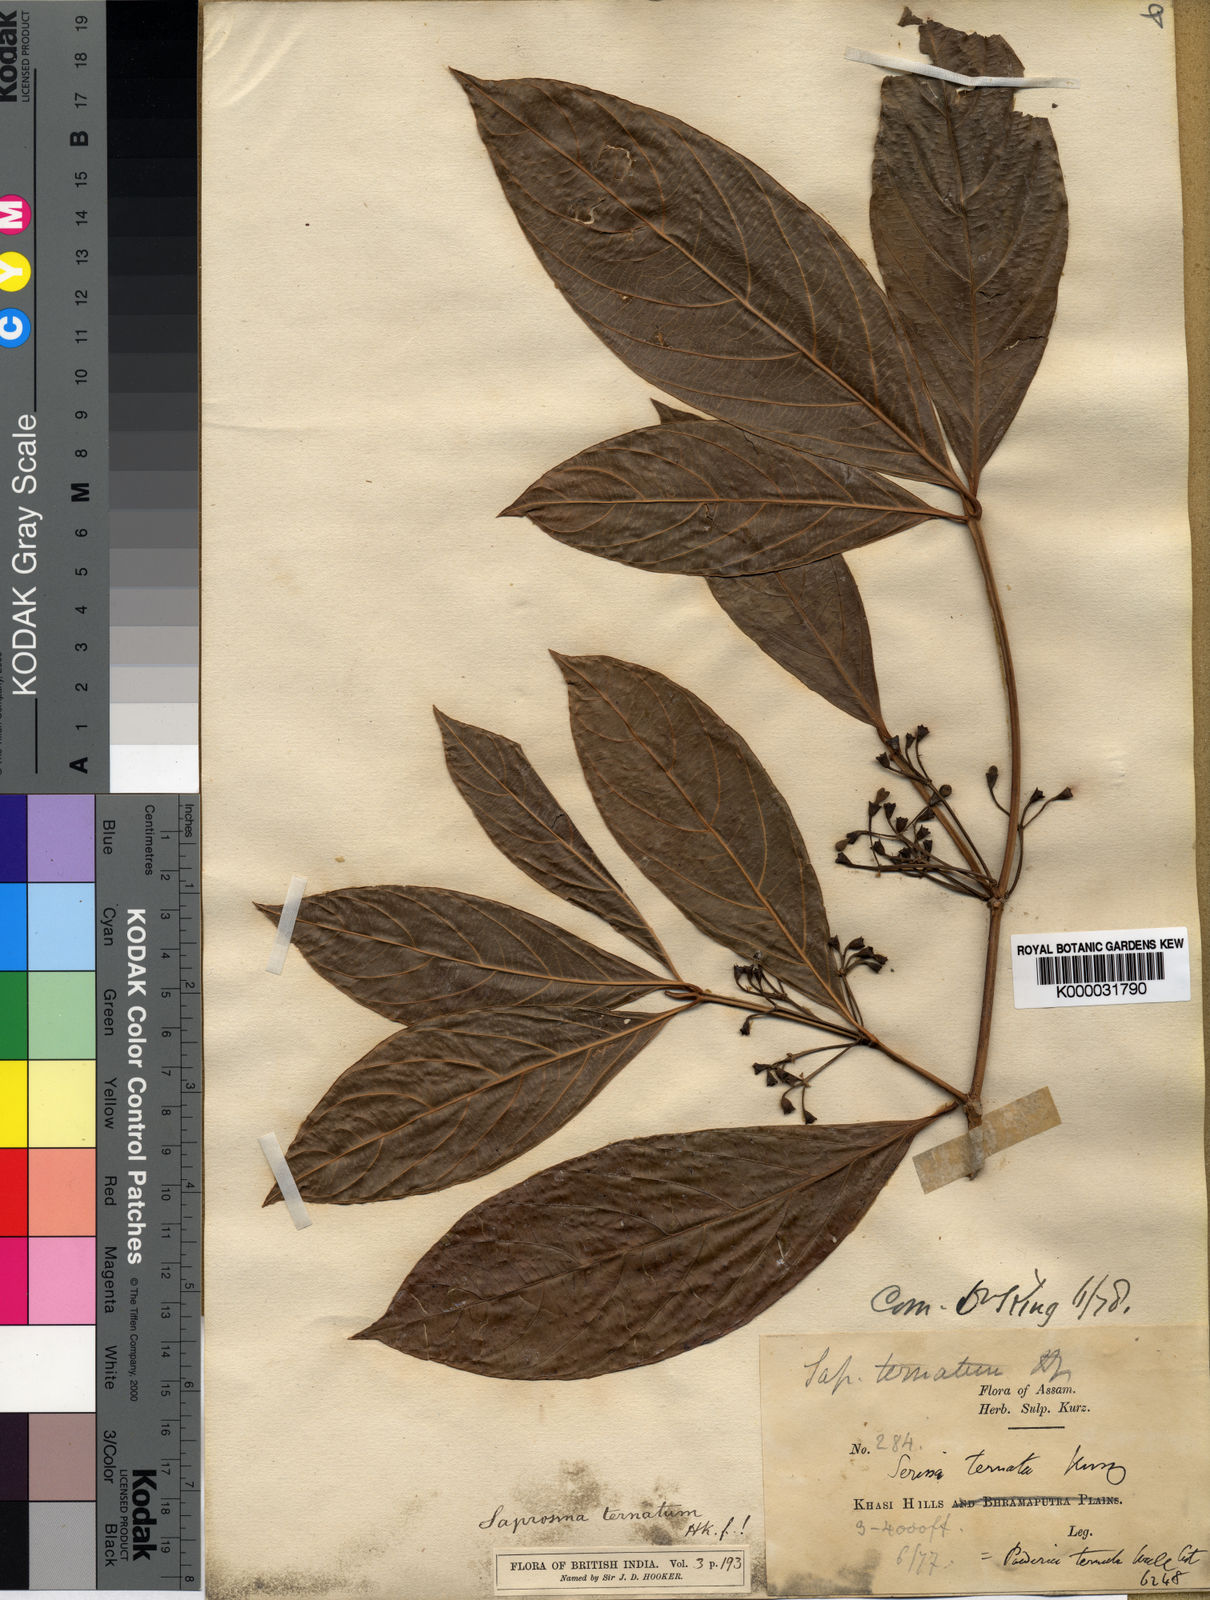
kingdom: Plantae
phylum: Tracheophyta
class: Magnoliopsida
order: Gentianales
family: Rubiaceae
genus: Saprosma
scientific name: Saprosma ternata
